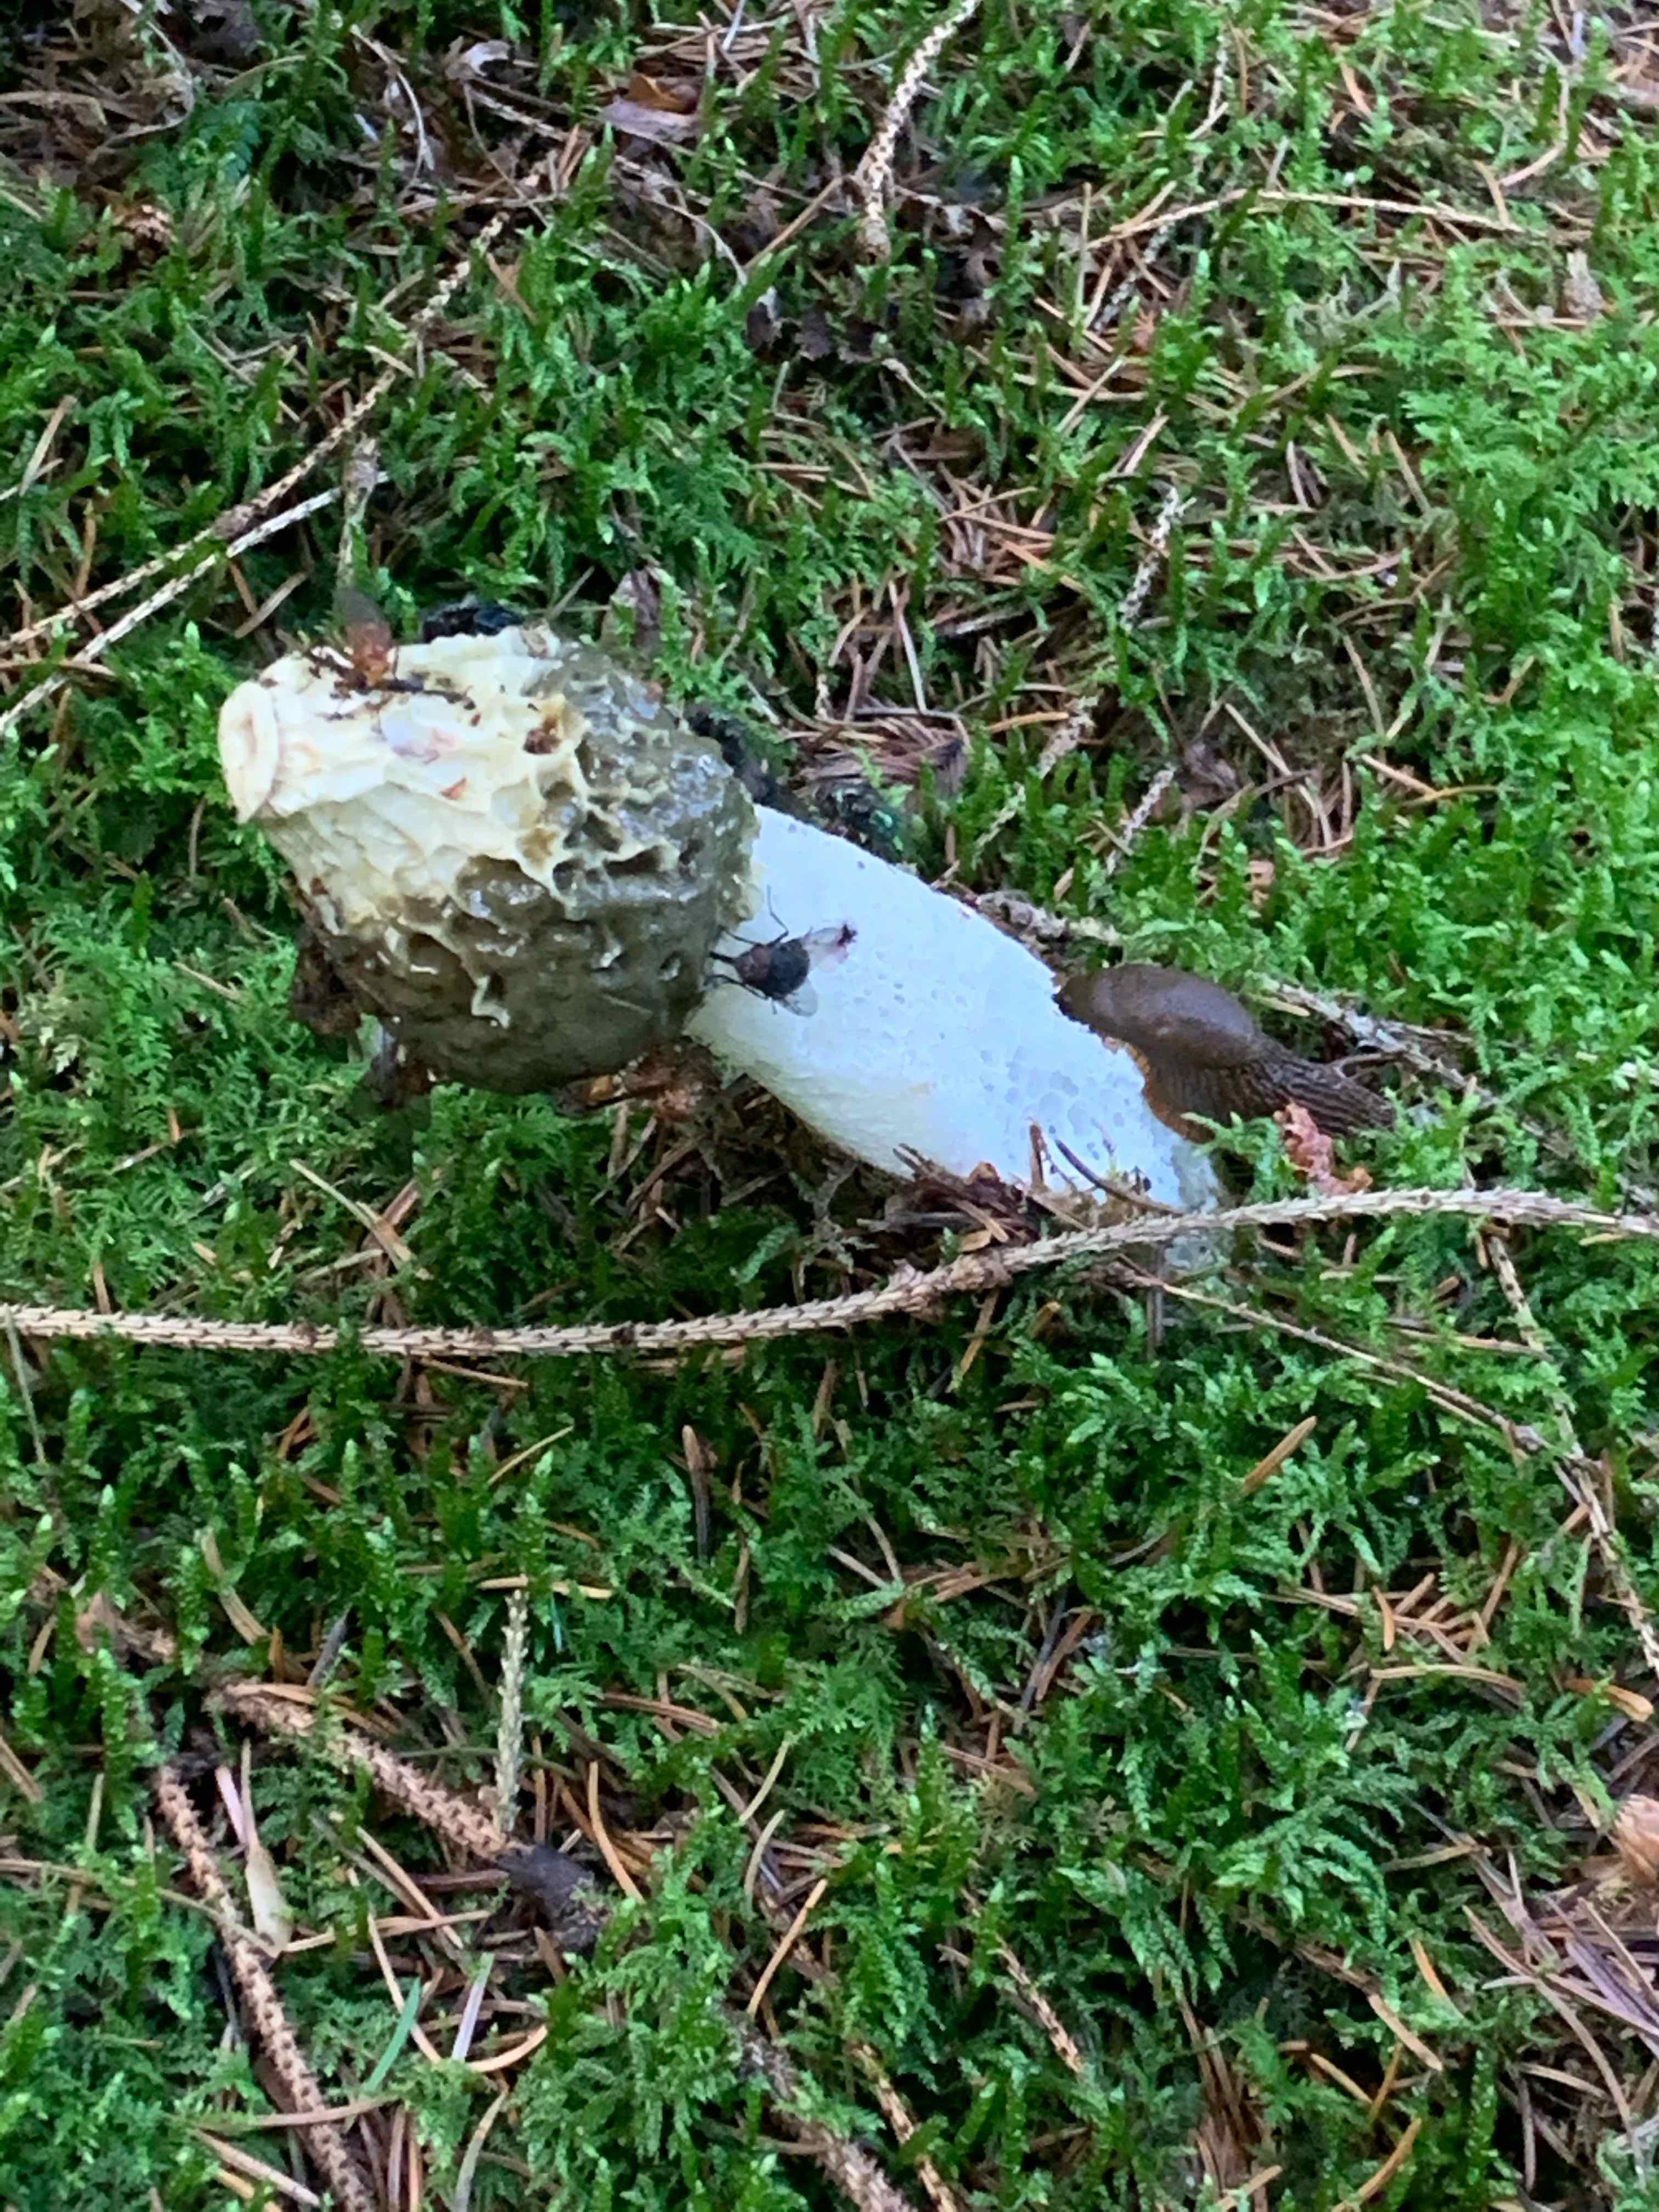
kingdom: Fungi
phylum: Basidiomycota
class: Agaricomycetes
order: Phallales
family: Phallaceae
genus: Phallus
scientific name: Phallus impudicus
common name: almindelig stinksvamp
